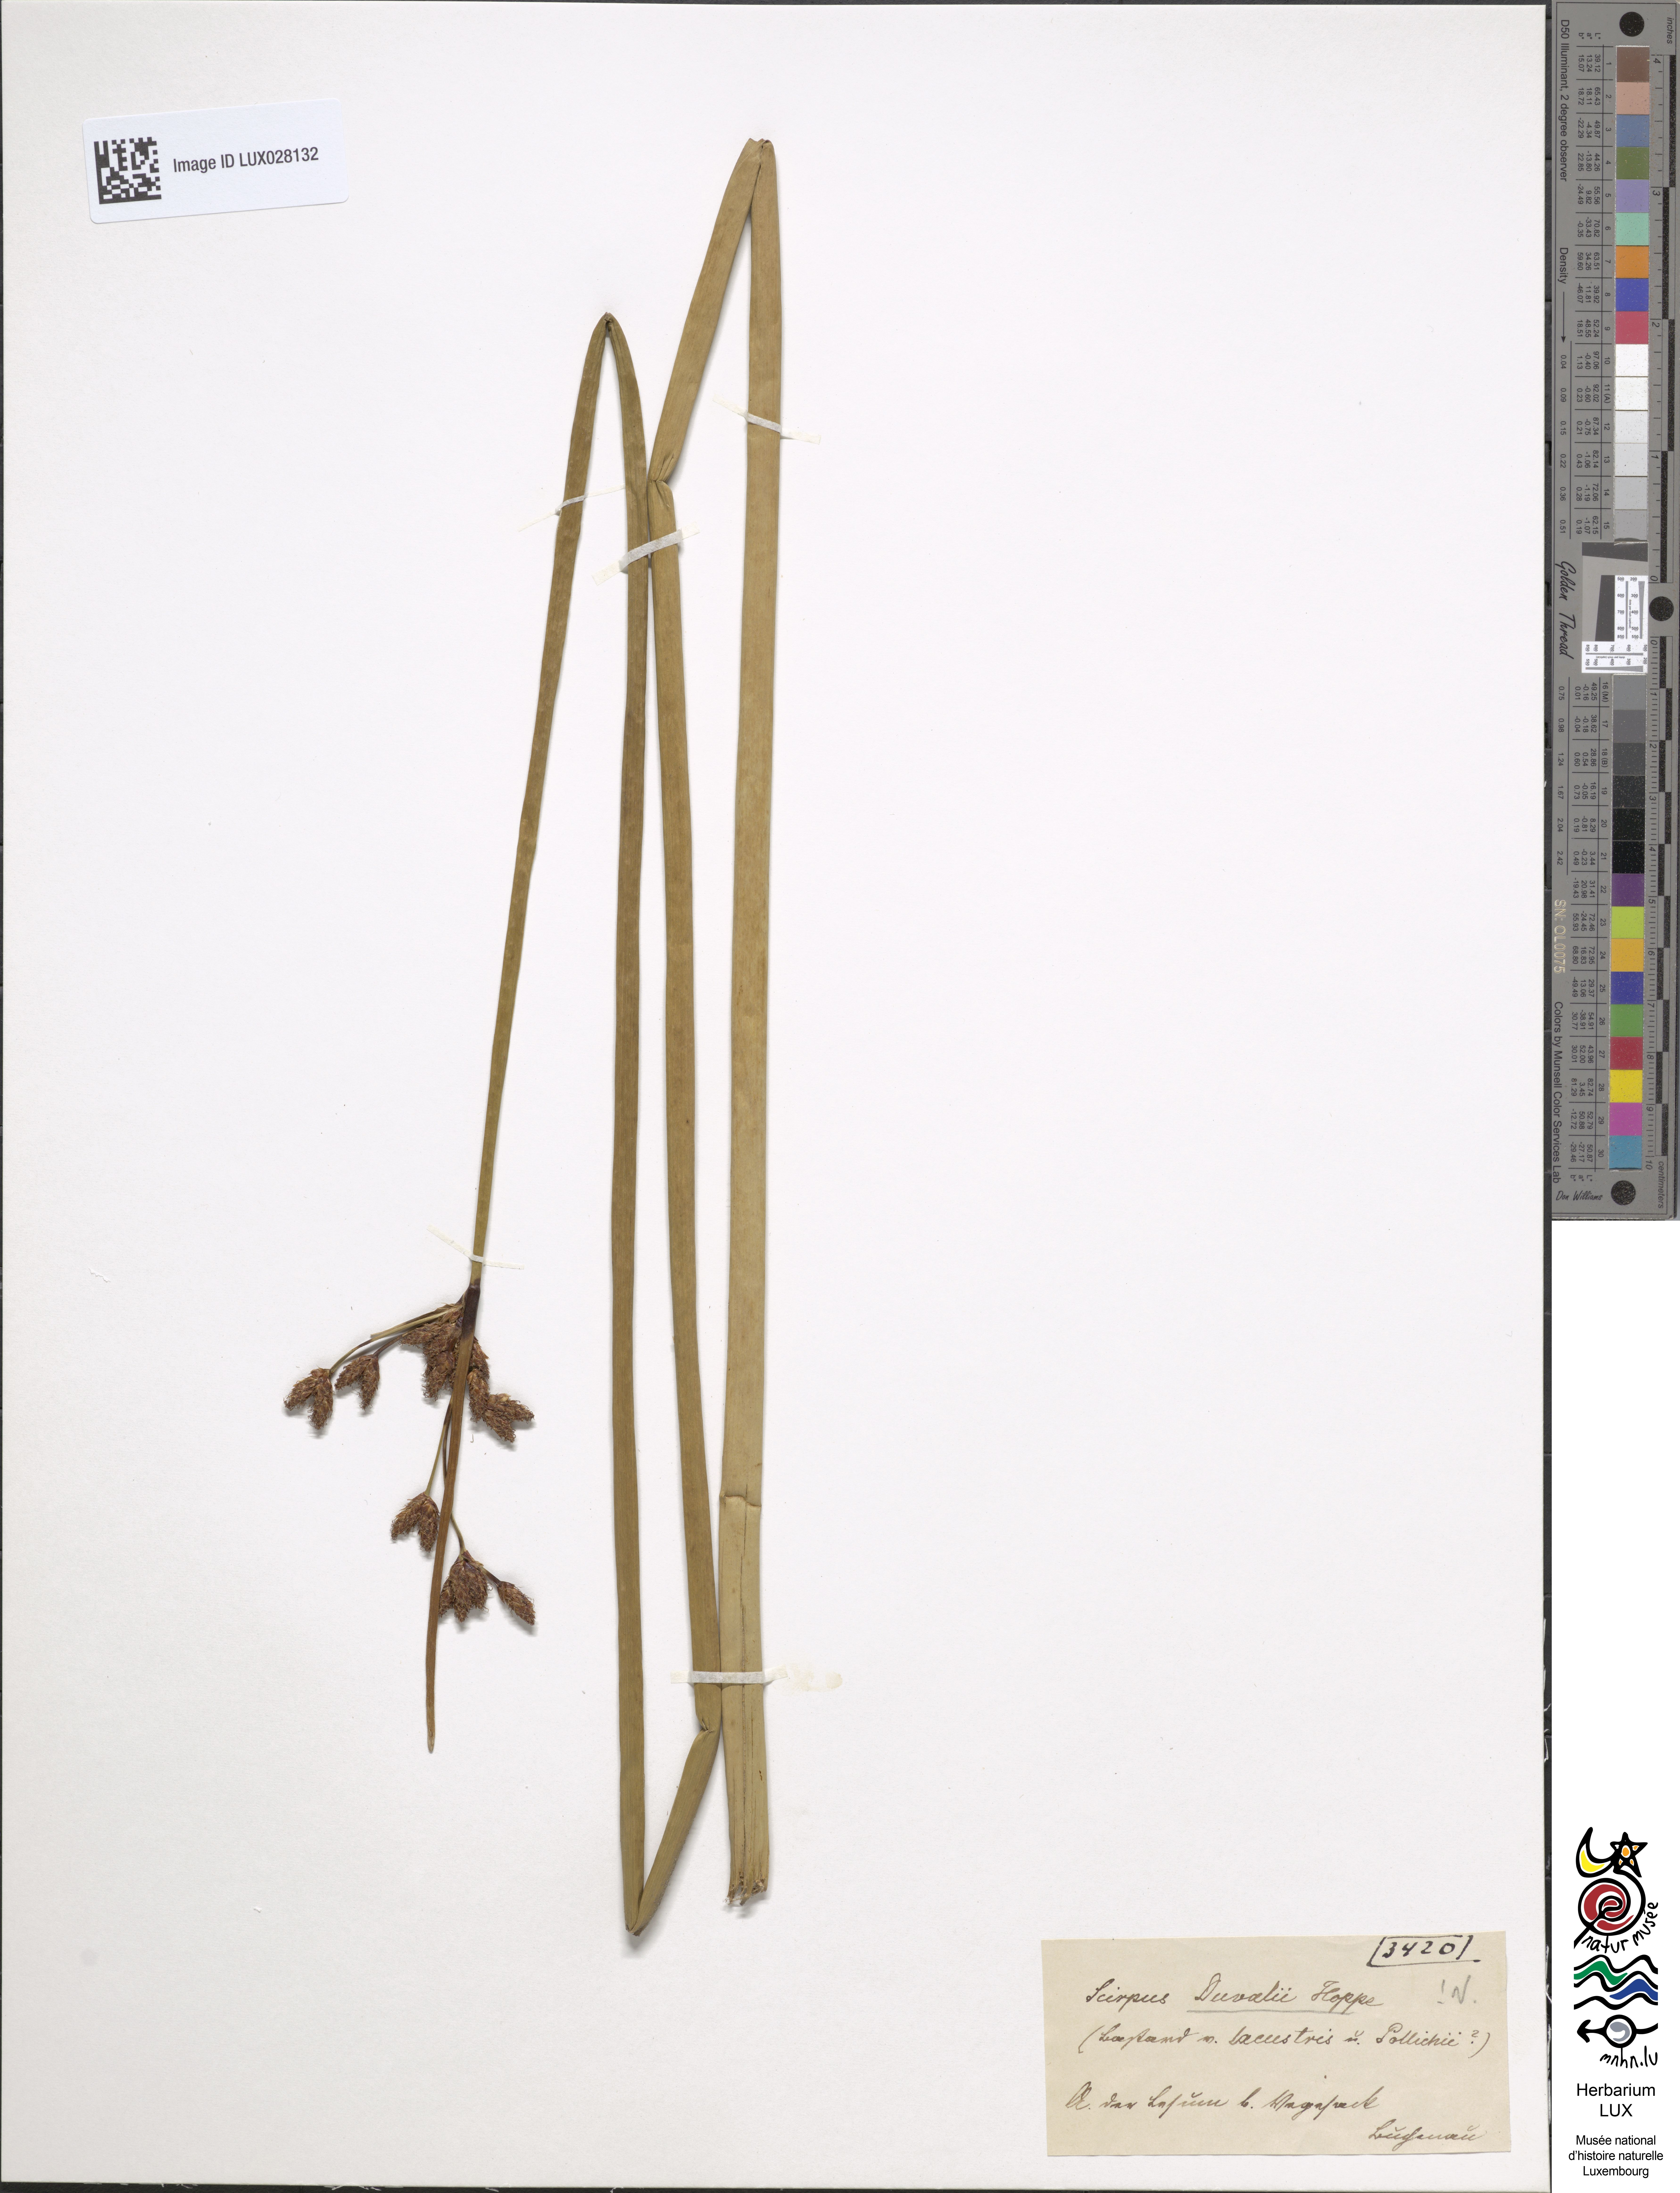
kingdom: Plantae
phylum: Tracheophyta
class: Liliopsida
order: Poales
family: Cyperaceae
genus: Schoenoplectus
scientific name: Schoenoplectus carinatus
